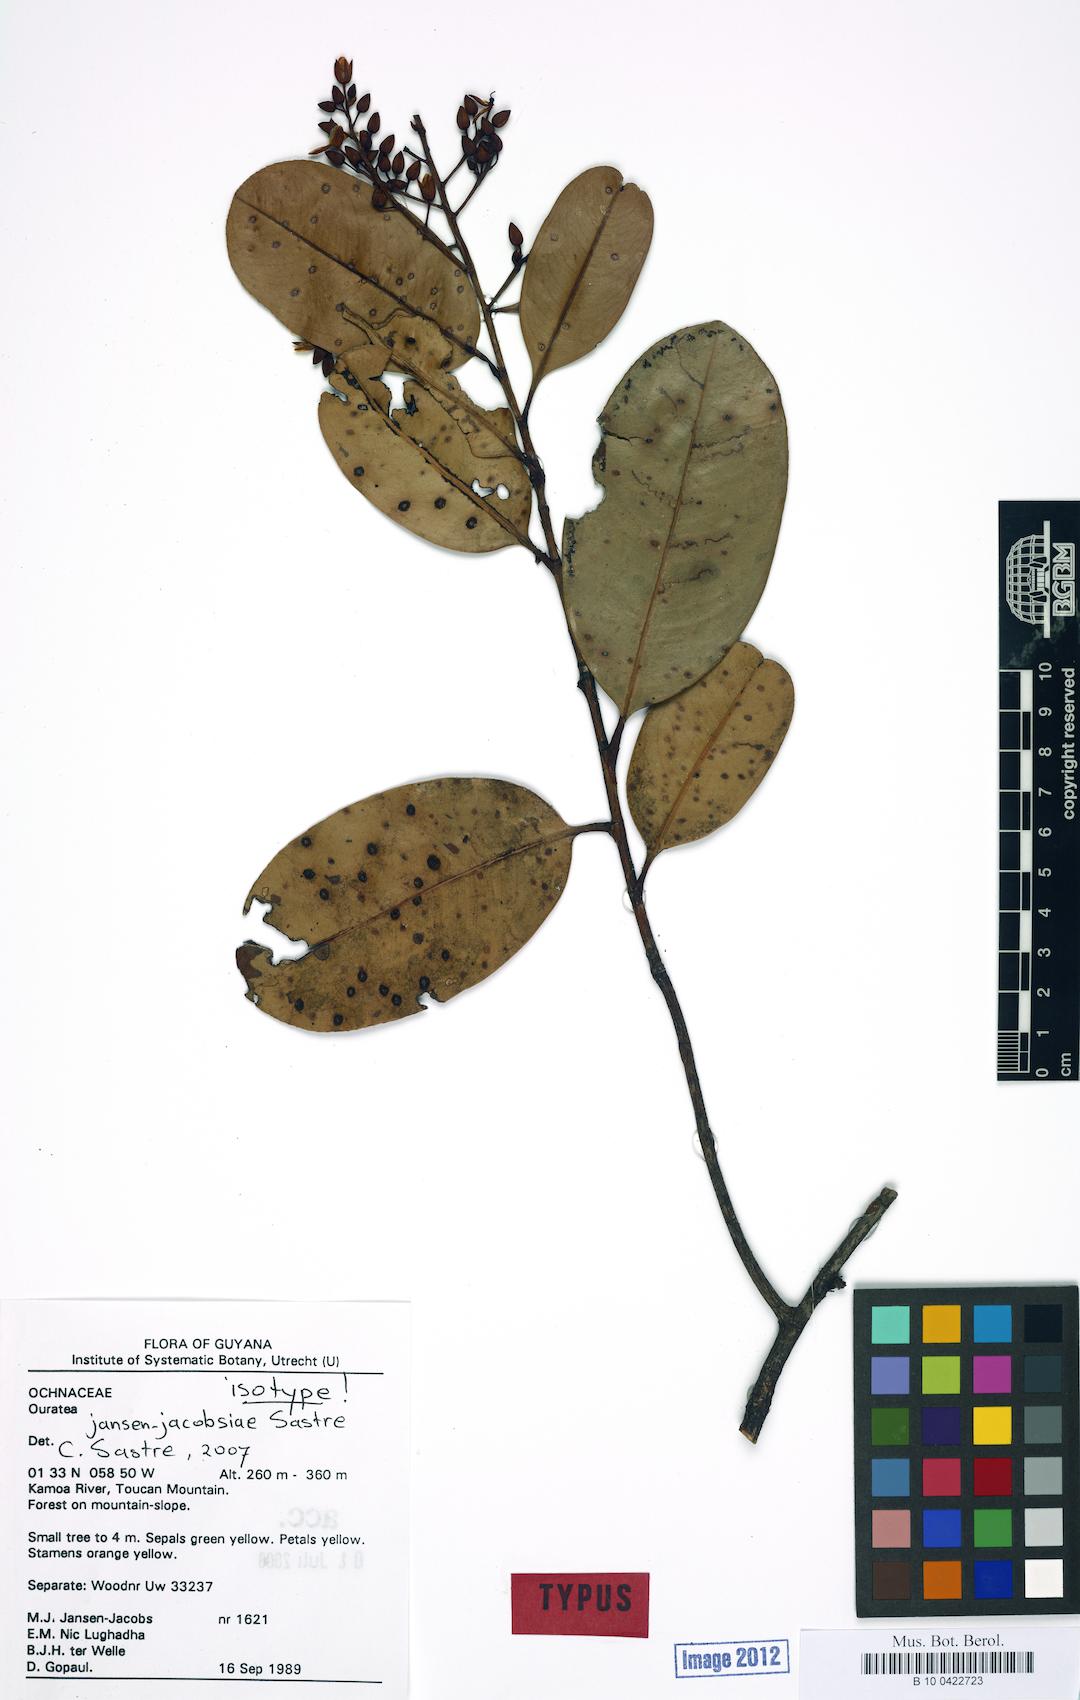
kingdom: Plantae
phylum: Tracheophyta
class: Magnoliopsida
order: Malpighiales
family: Ochnaceae
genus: Ouratea
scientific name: Ouratea jansen-jacobsiae
